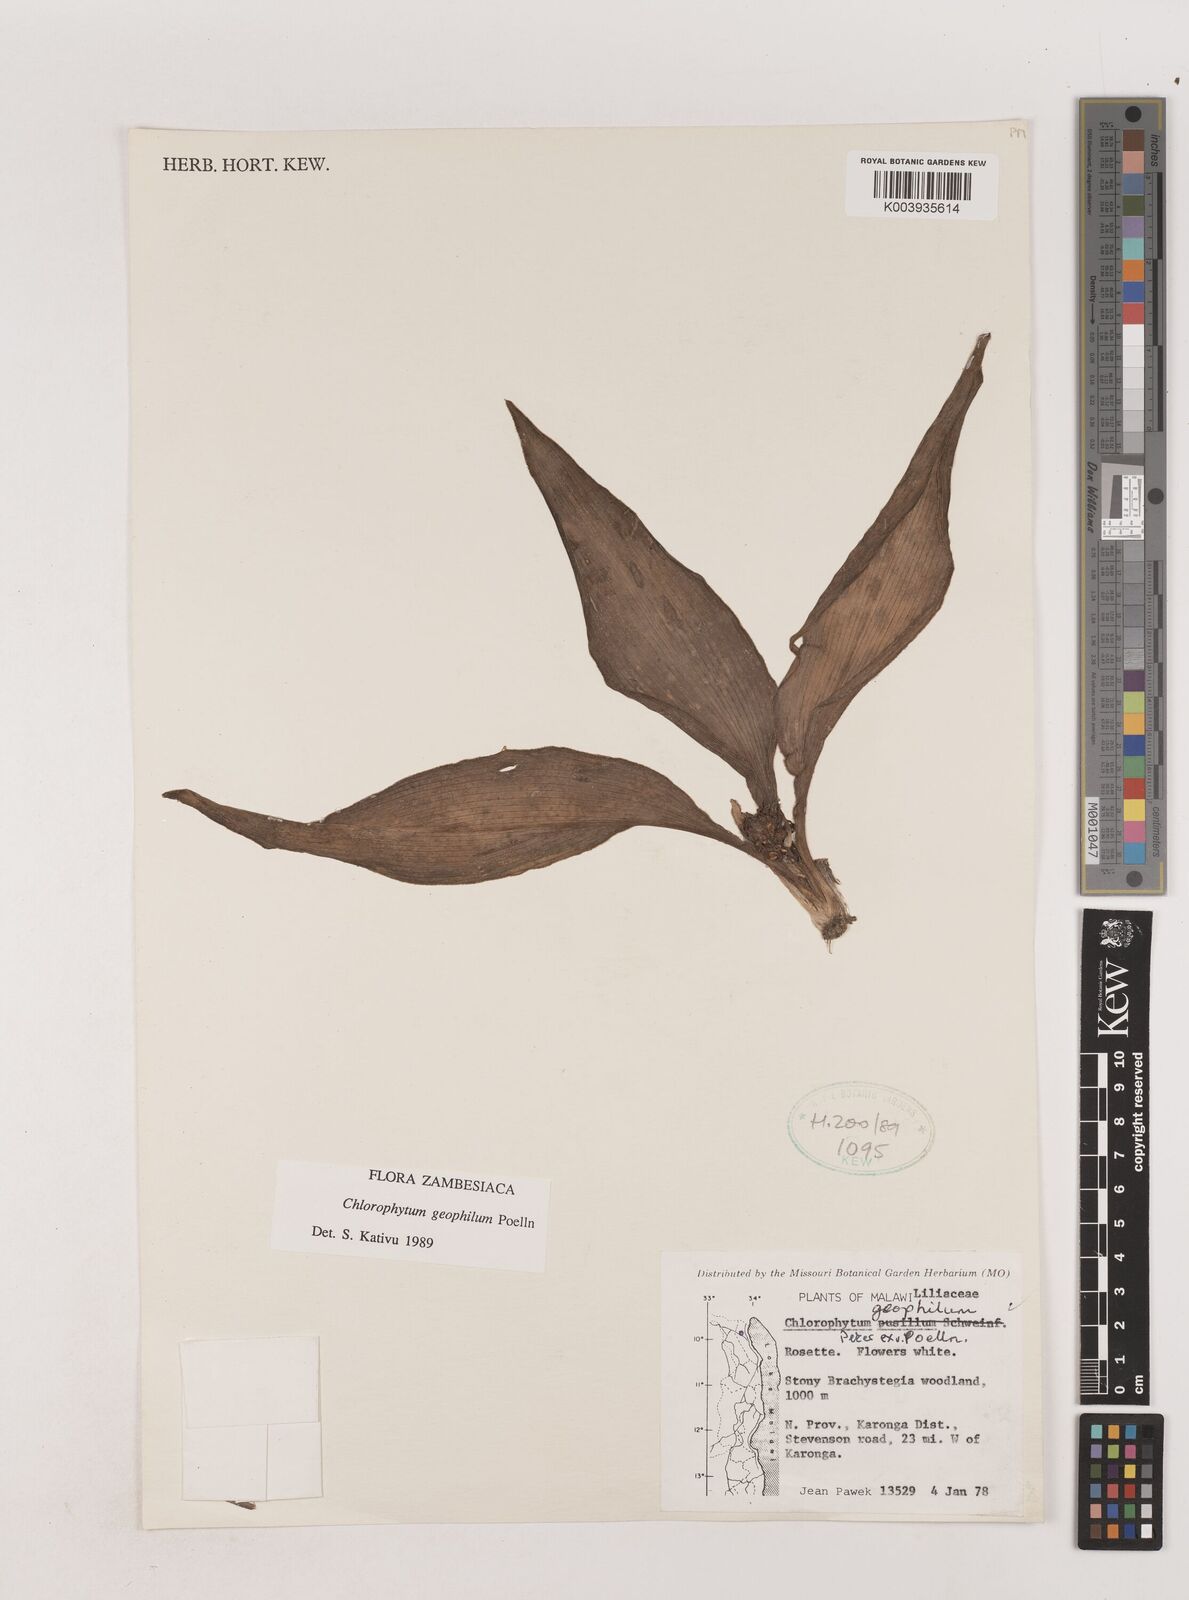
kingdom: Plantae
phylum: Tracheophyta
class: Liliopsida
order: Asparagales
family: Asparagaceae
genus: Chlorophytum
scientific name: Chlorophytum geophilum
